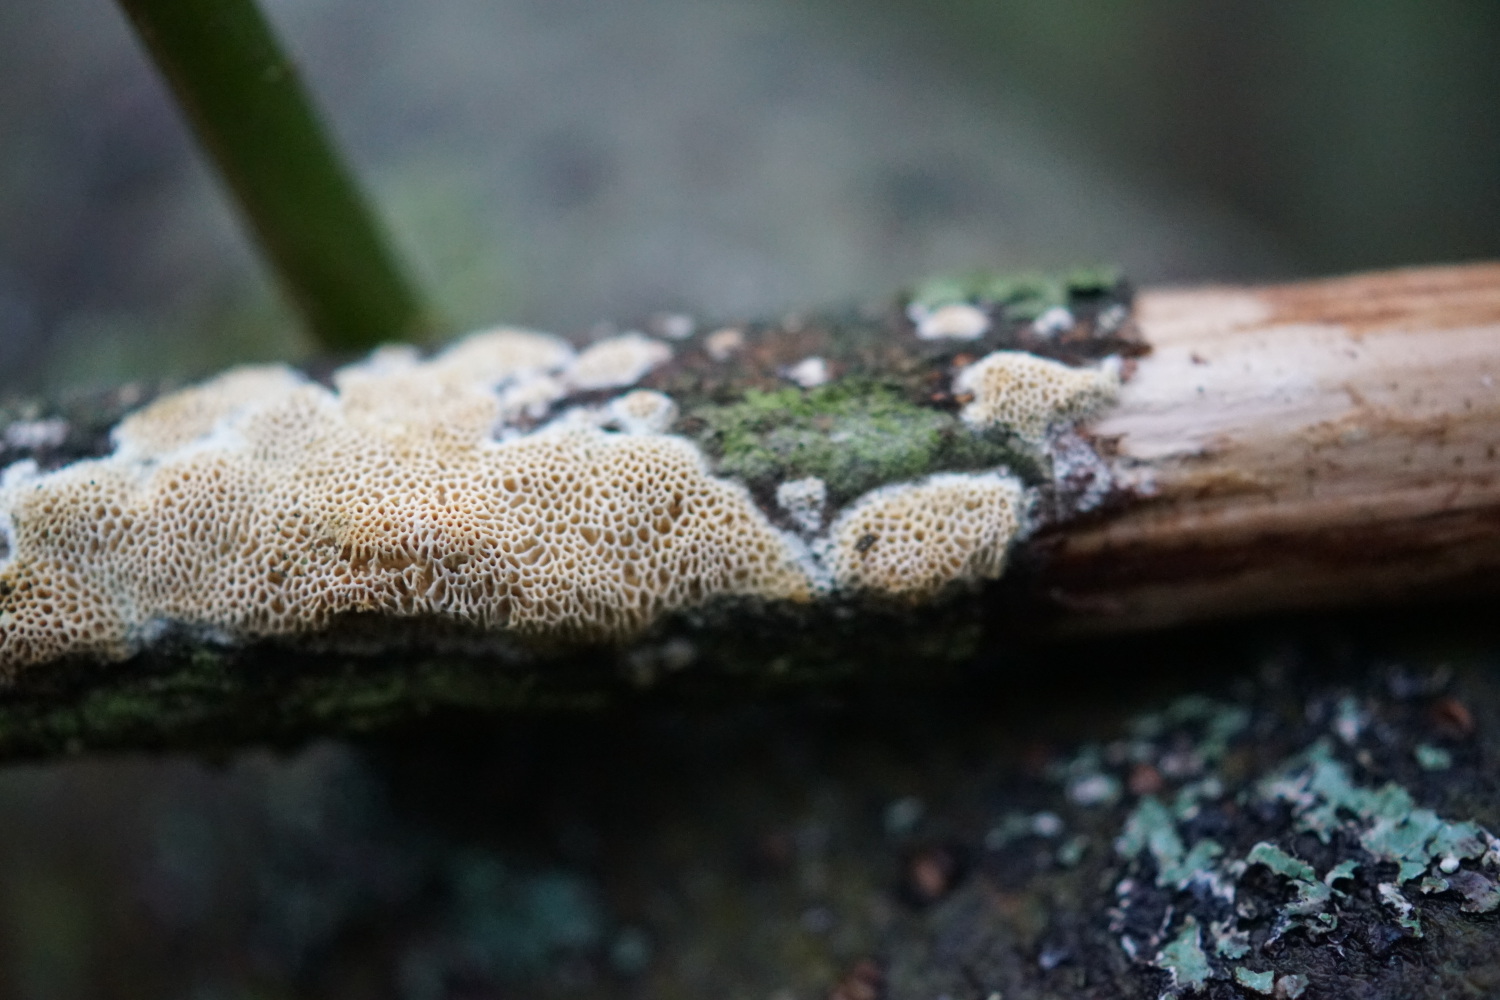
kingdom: Fungi
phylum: Basidiomycota
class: Agaricomycetes
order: Polyporales
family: Irpicaceae
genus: Resiniporus
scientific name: Resiniporus resinascens
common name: trist pastelporesvamp
